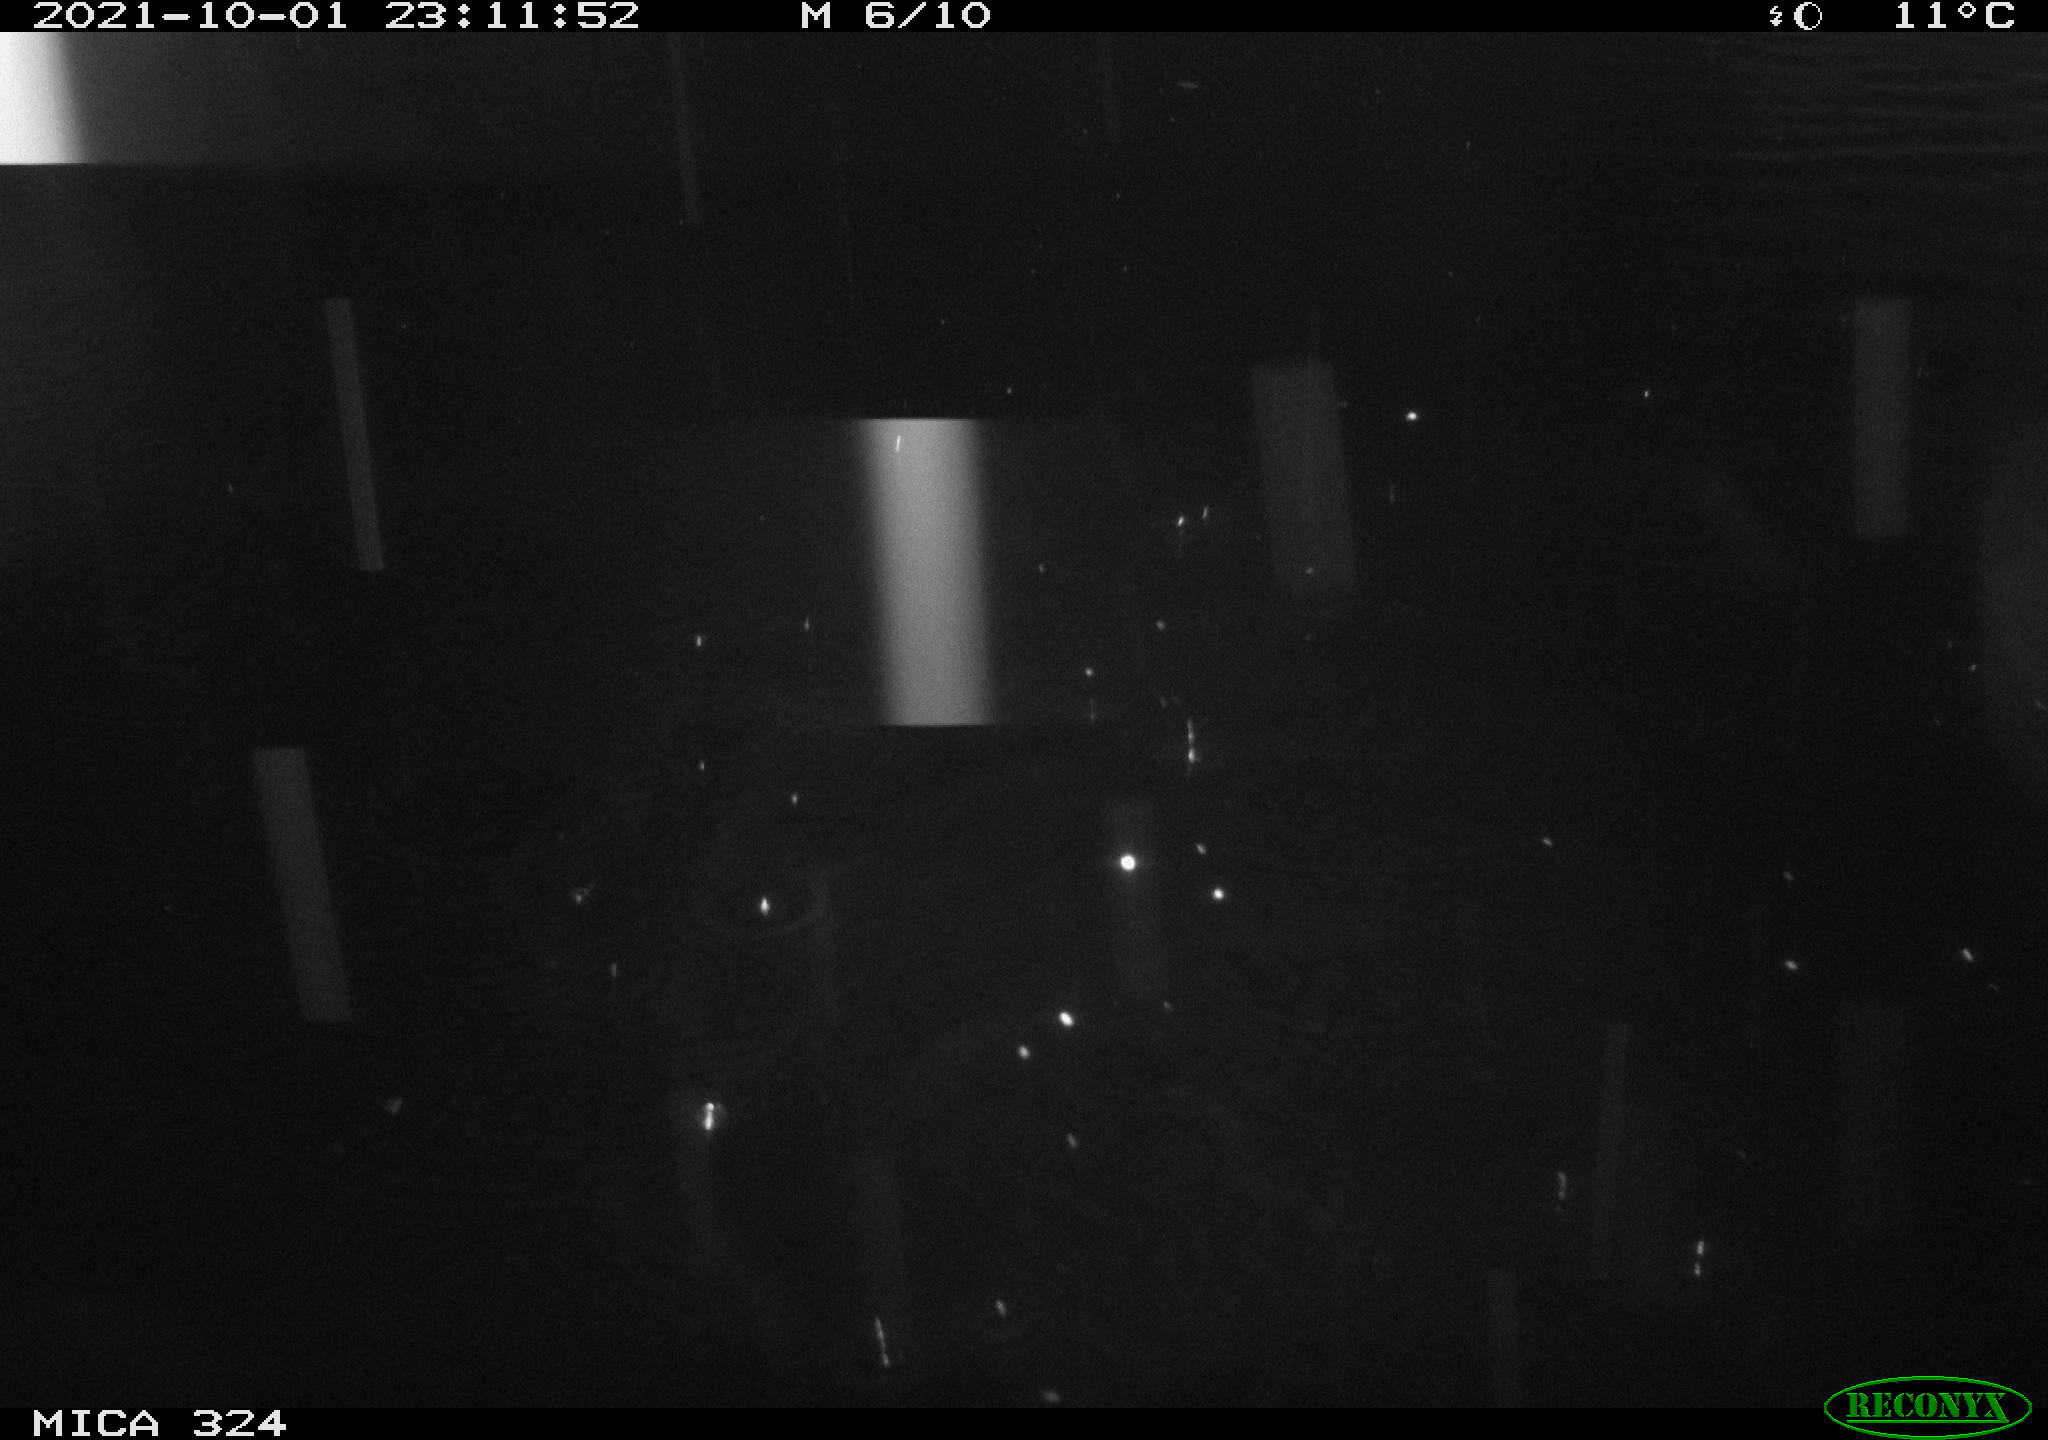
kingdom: Animalia
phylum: Chordata
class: Mammalia
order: Rodentia
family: Cricetidae
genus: Ondatra
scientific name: Ondatra zibethicus
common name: Muskrat
